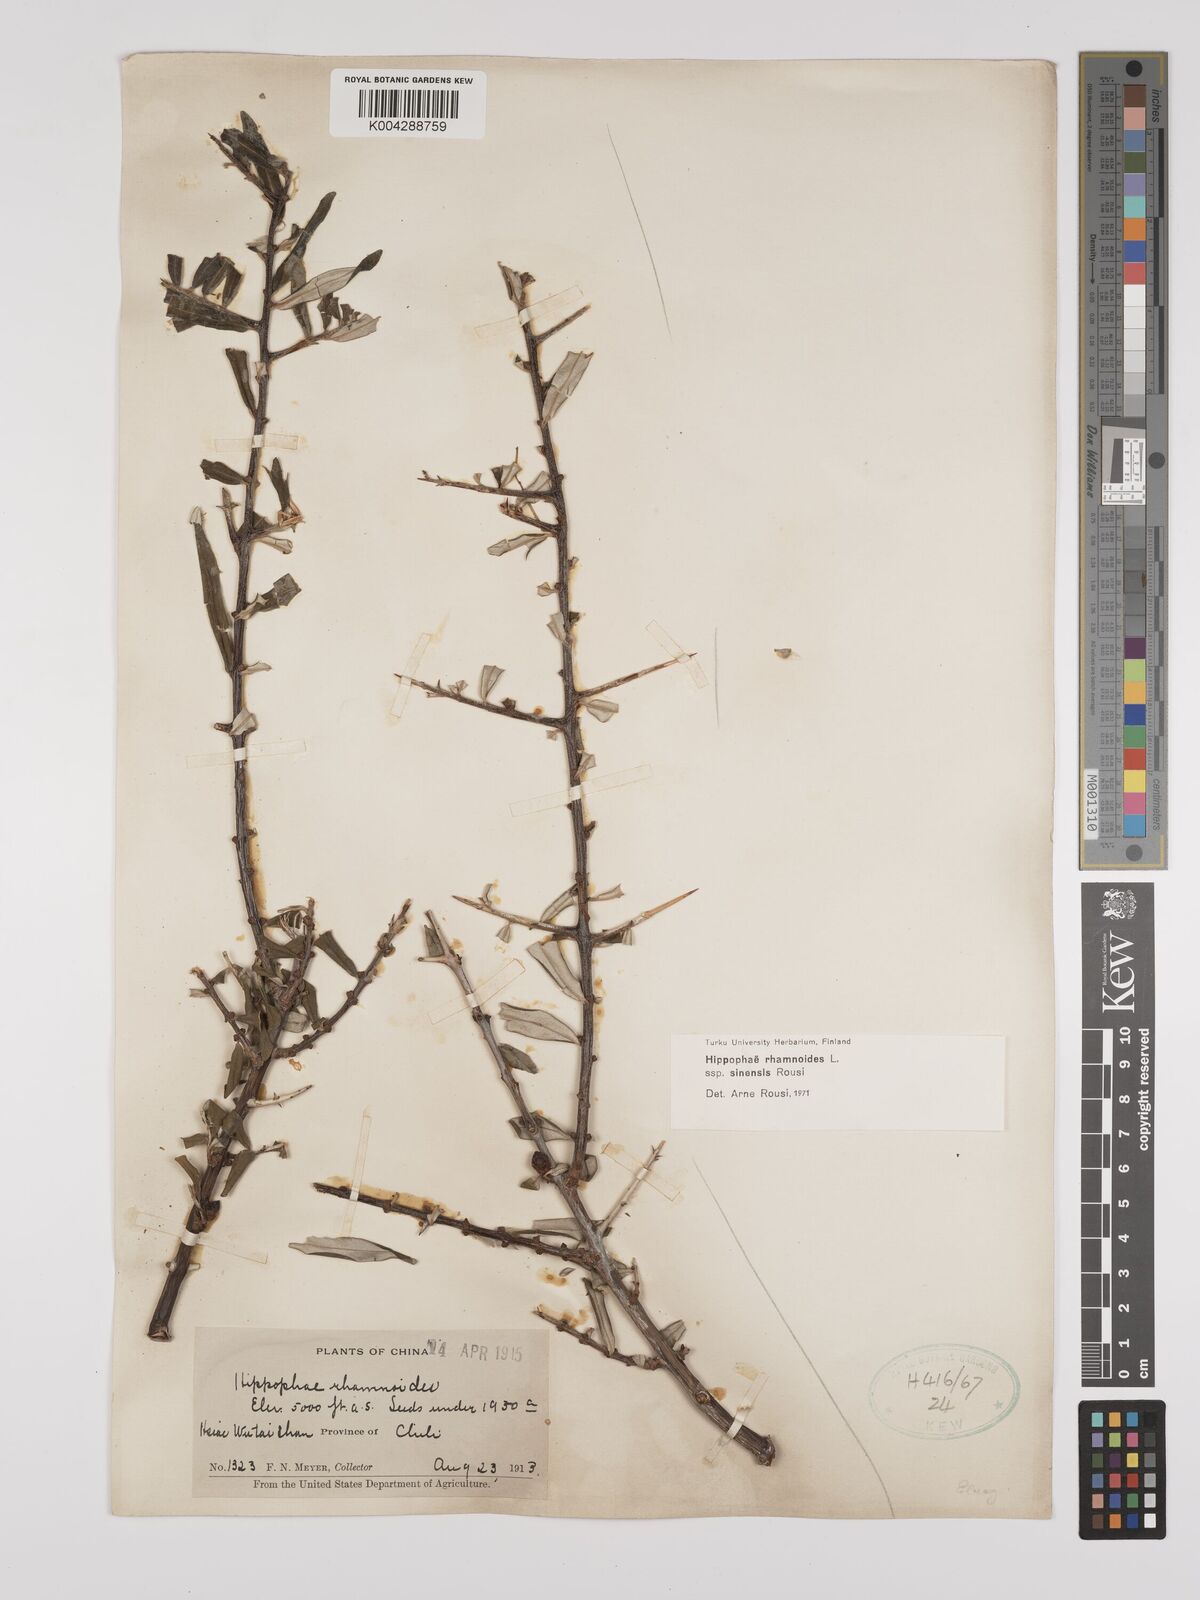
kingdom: Plantae
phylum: Tracheophyta
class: Magnoliopsida
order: Rosales
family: Elaeagnaceae
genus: Hippophae
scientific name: Hippophae rhamnoides
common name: Sea-buckthorn
